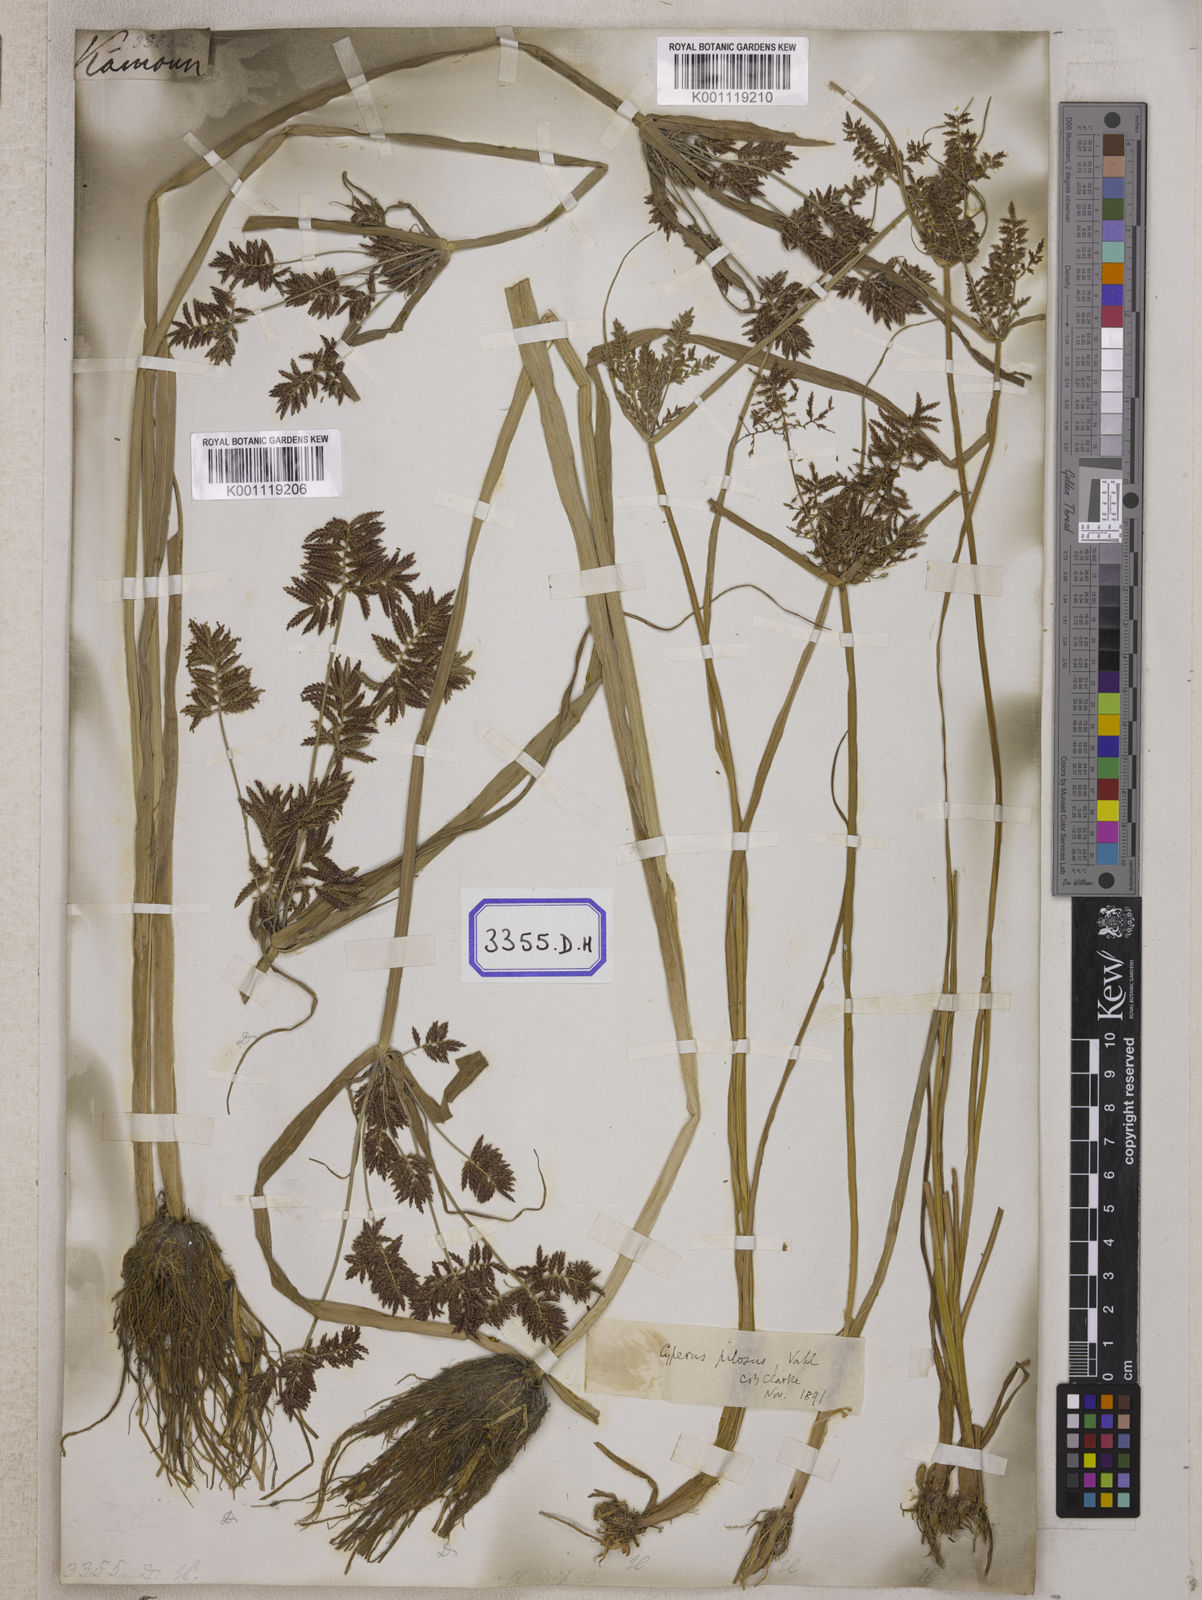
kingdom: Plantae
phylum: Tracheophyta
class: Liliopsida
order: Poales
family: Cyperaceae
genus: Cyperus
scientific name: Cyperus
